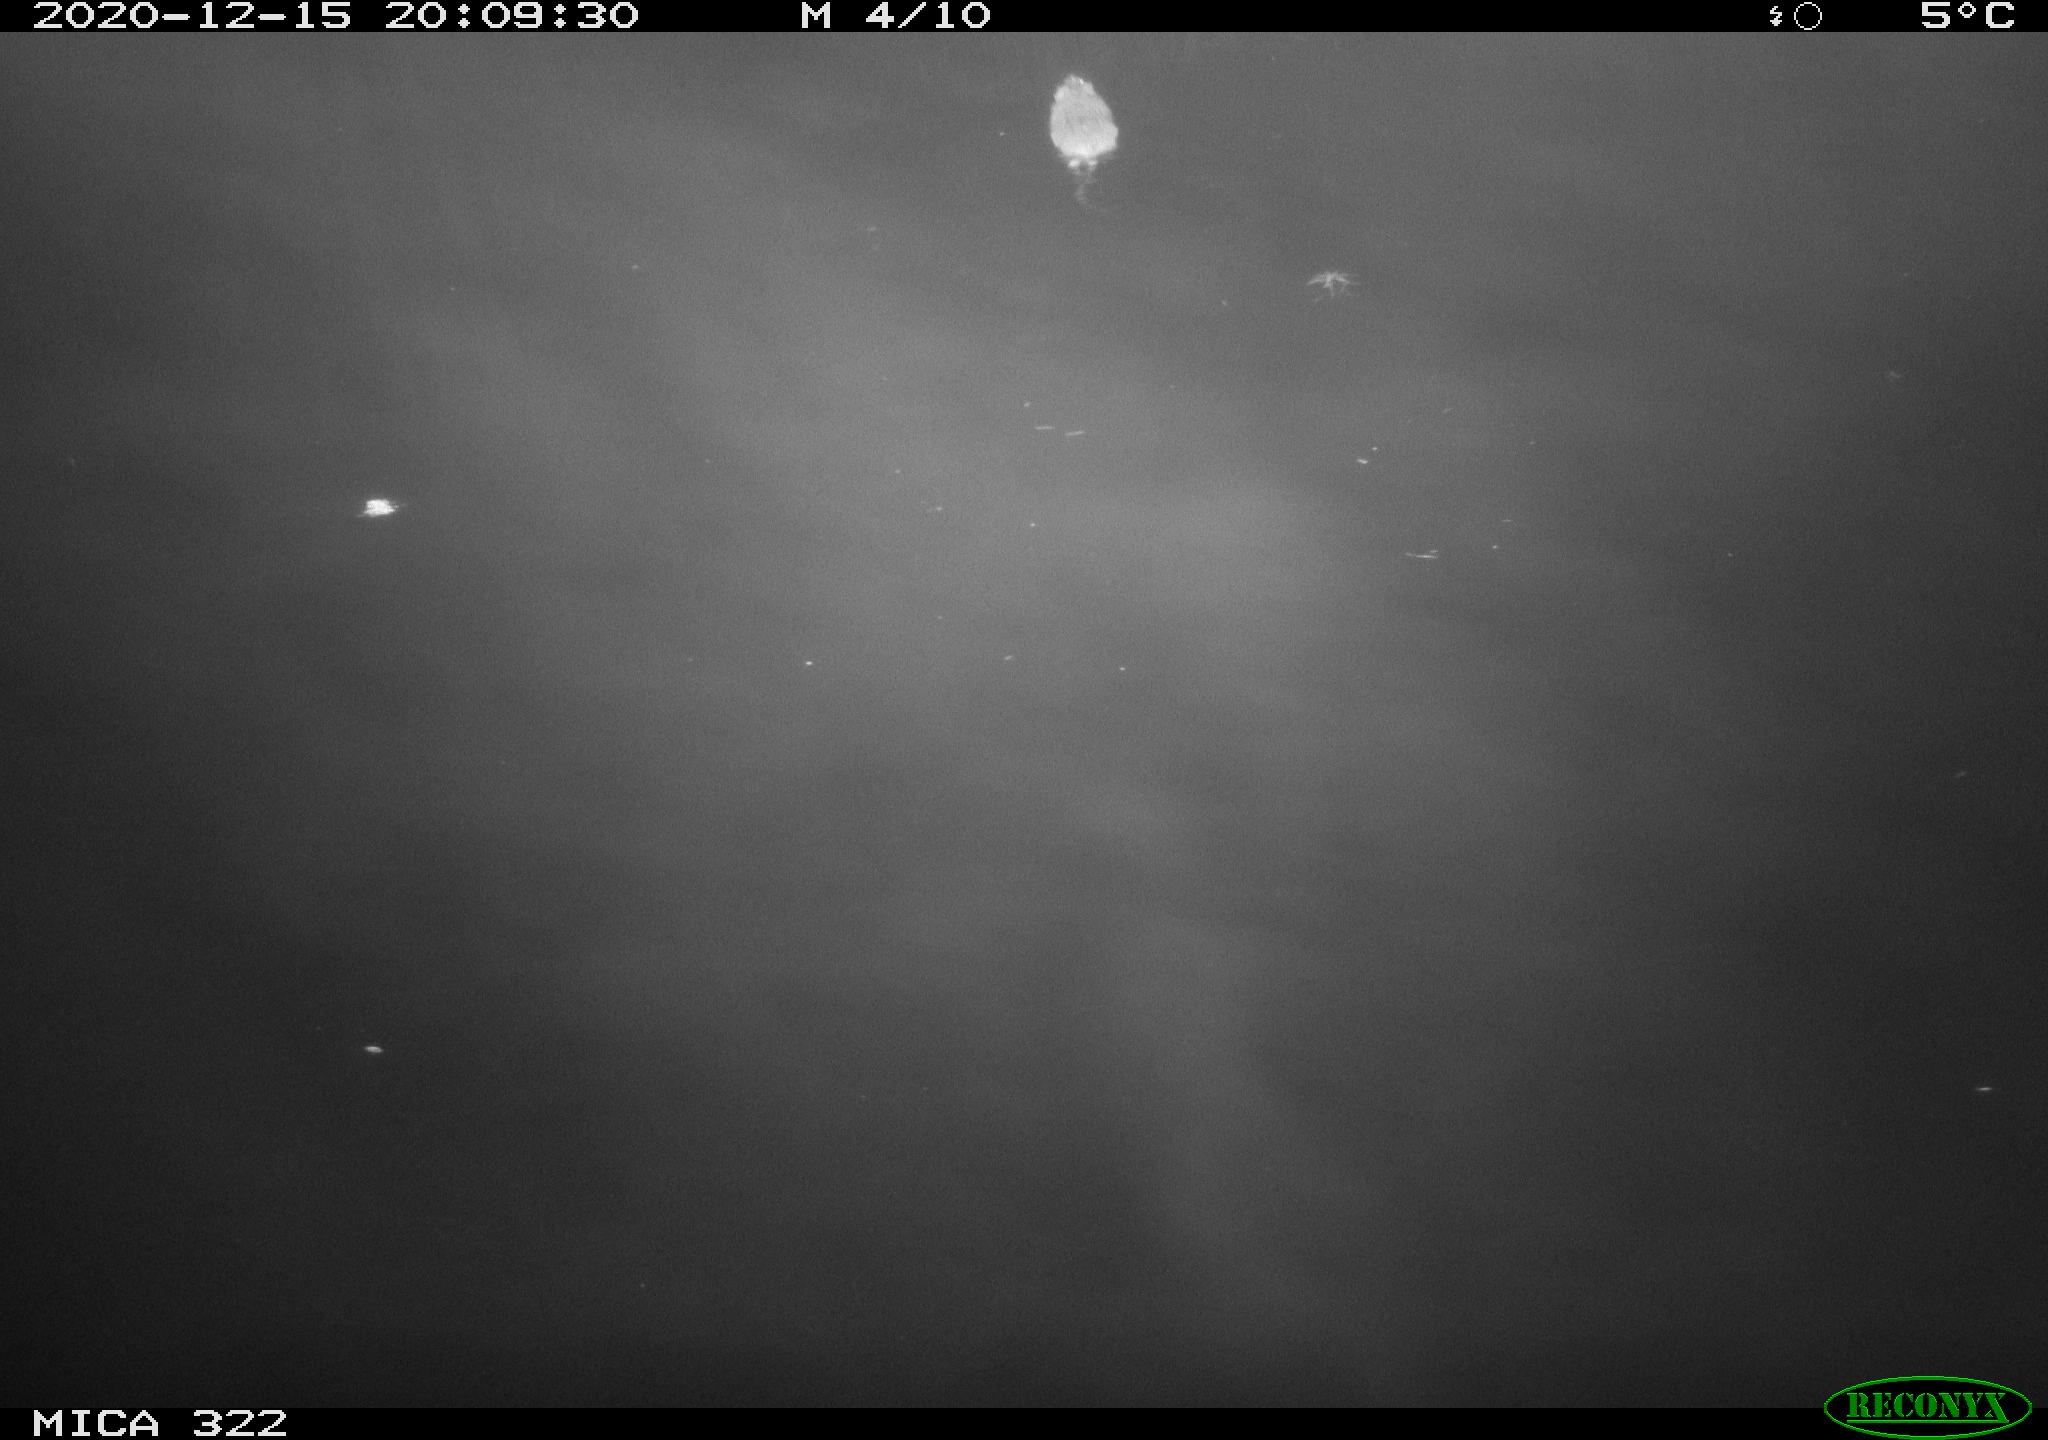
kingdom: Animalia
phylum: Chordata
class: Mammalia
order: Rodentia
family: Muridae
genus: Rattus
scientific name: Rattus norvegicus
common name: Brown rat
